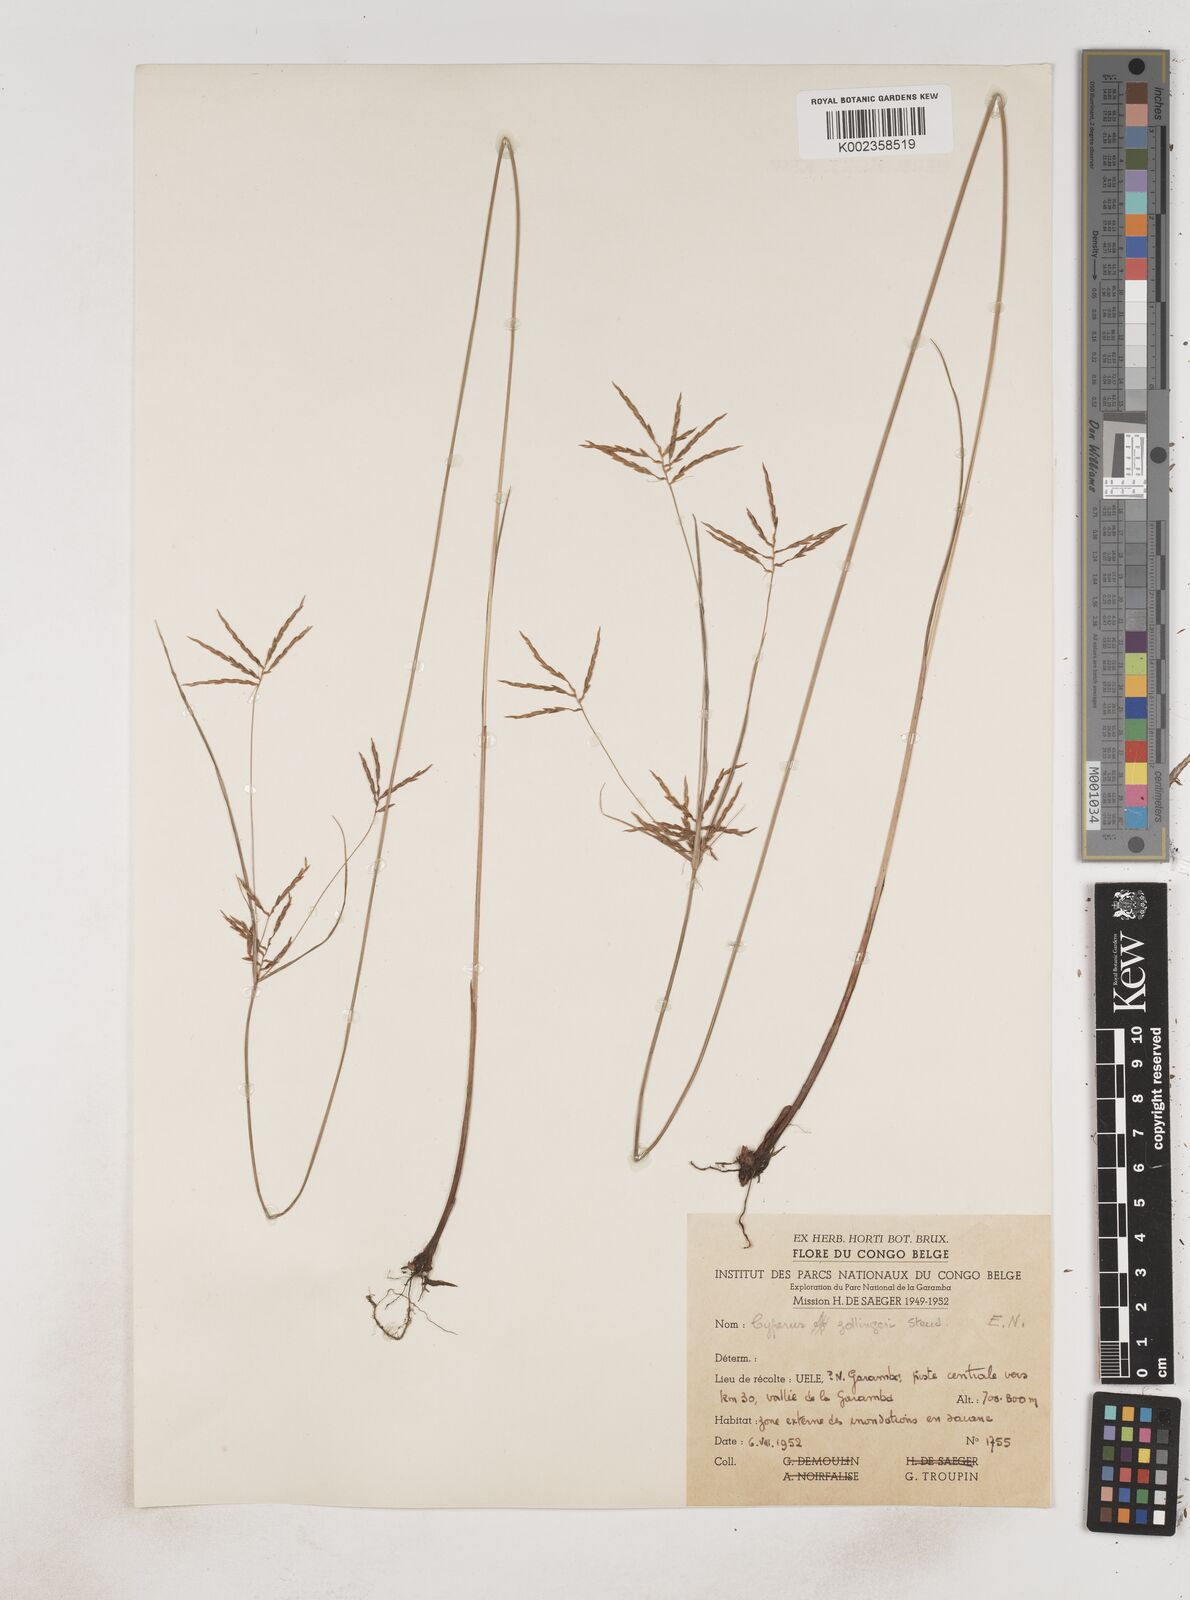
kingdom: Plantae
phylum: Tracheophyta
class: Liliopsida
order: Poales
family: Cyperaceae
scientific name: Cyperaceae
